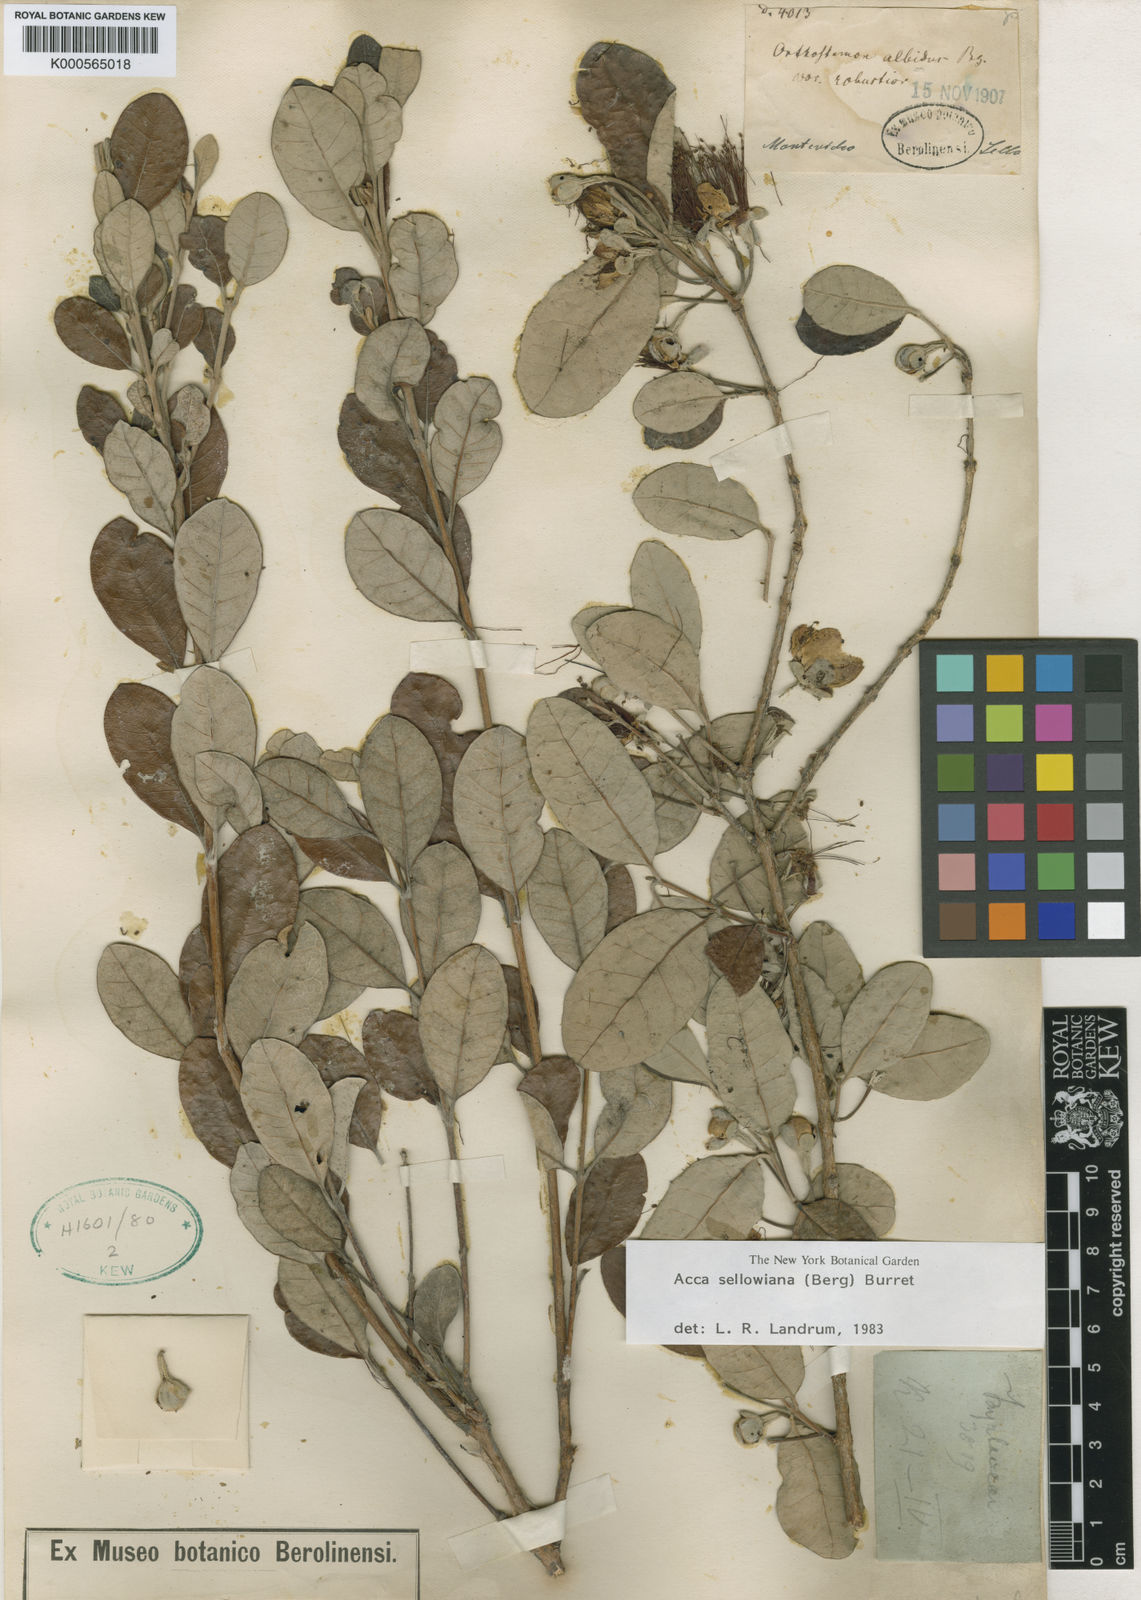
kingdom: Plantae
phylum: Tracheophyta
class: Magnoliopsida
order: Myrtales
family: Myrtaceae
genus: Feijoa
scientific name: Feijoa sellowiana
